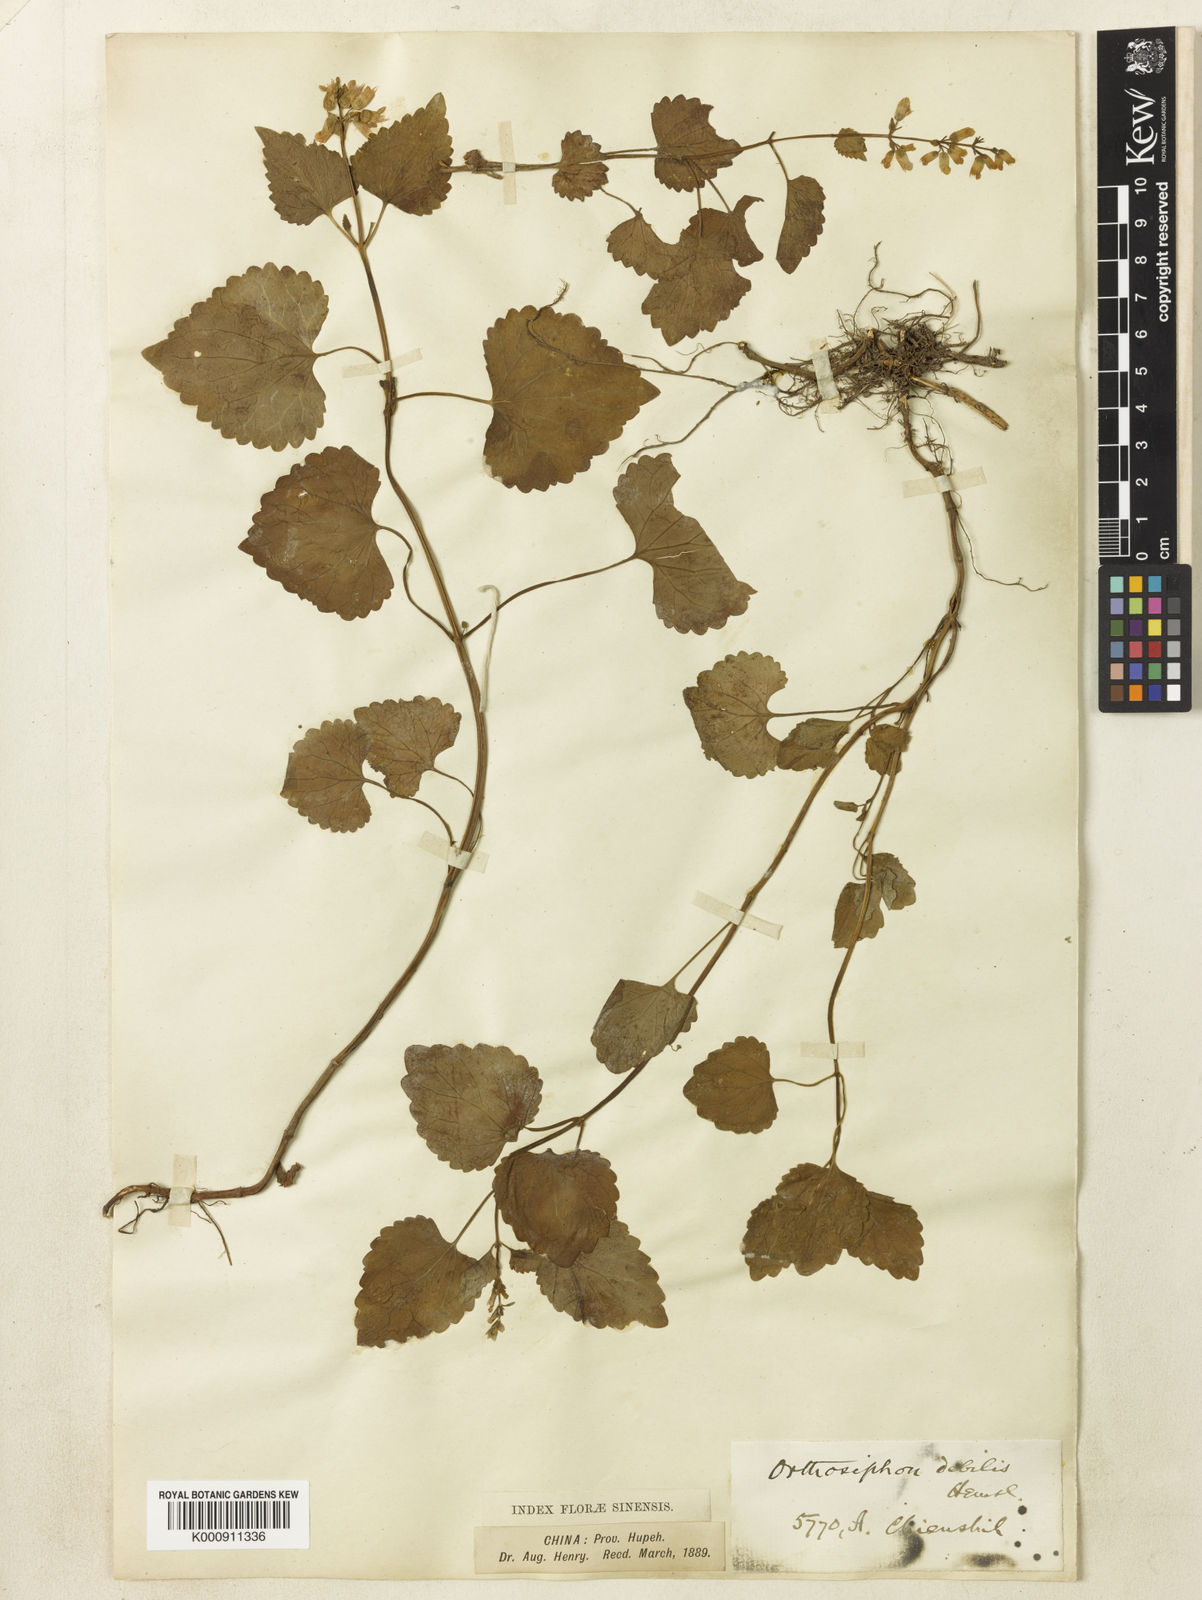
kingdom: Plantae
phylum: Tracheophyta
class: Magnoliopsida
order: Lamiales
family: Lamiaceae
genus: Heterolamium
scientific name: Heterolamium debile
